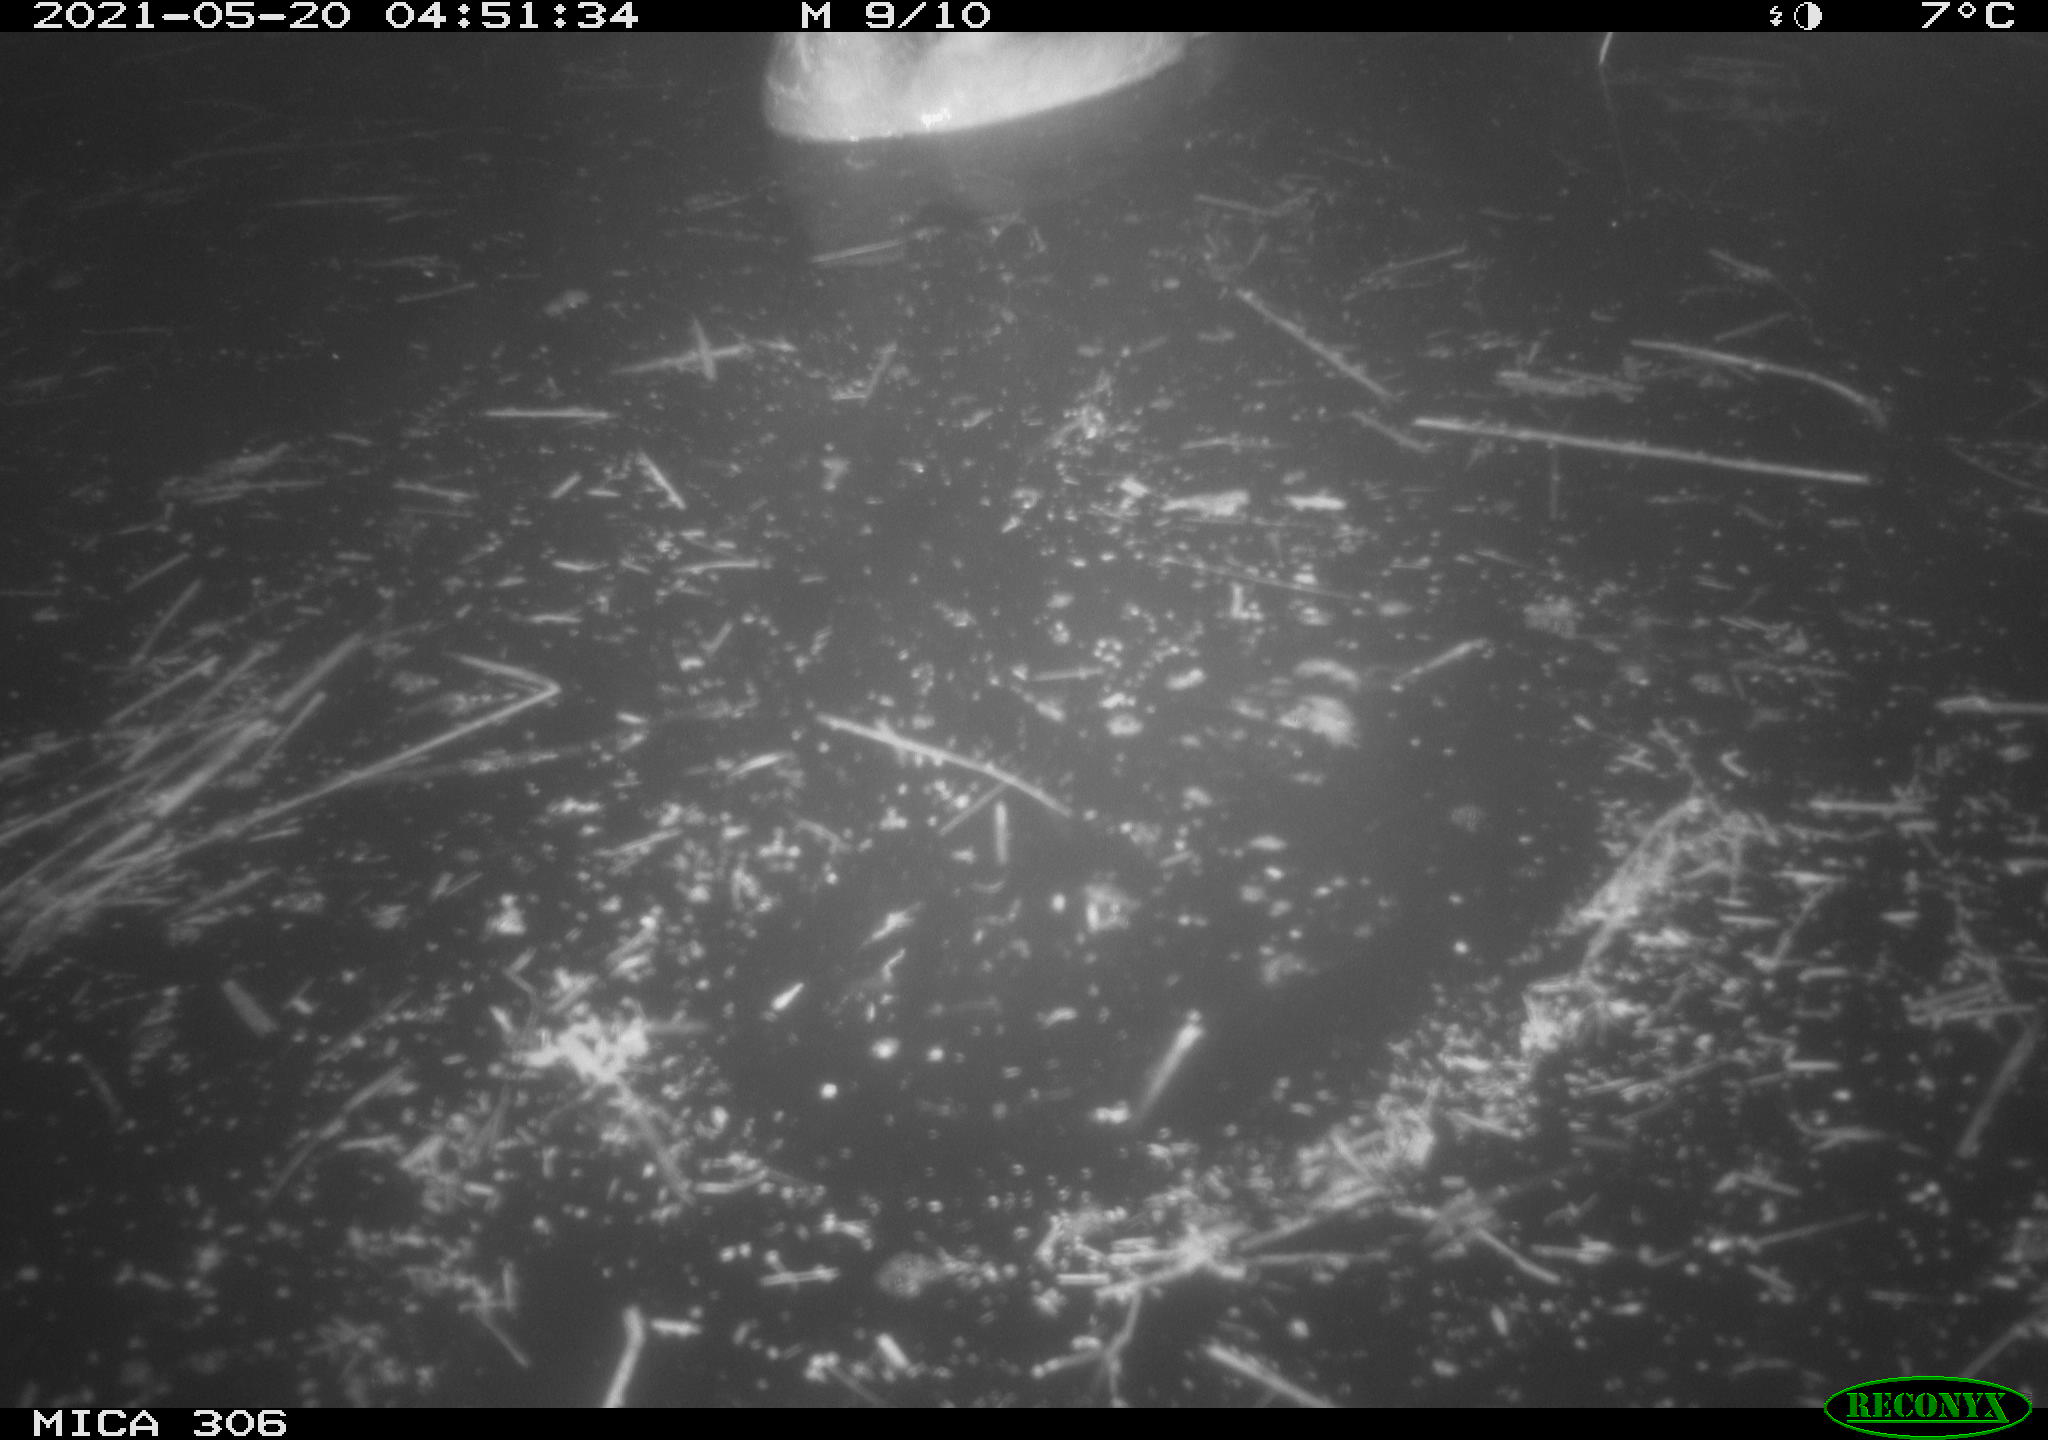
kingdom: Animalia
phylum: Chordata
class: Aves
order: Anseriformes
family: Anatidae
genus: Anas
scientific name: Anas platyrhynchos
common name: Mallard
